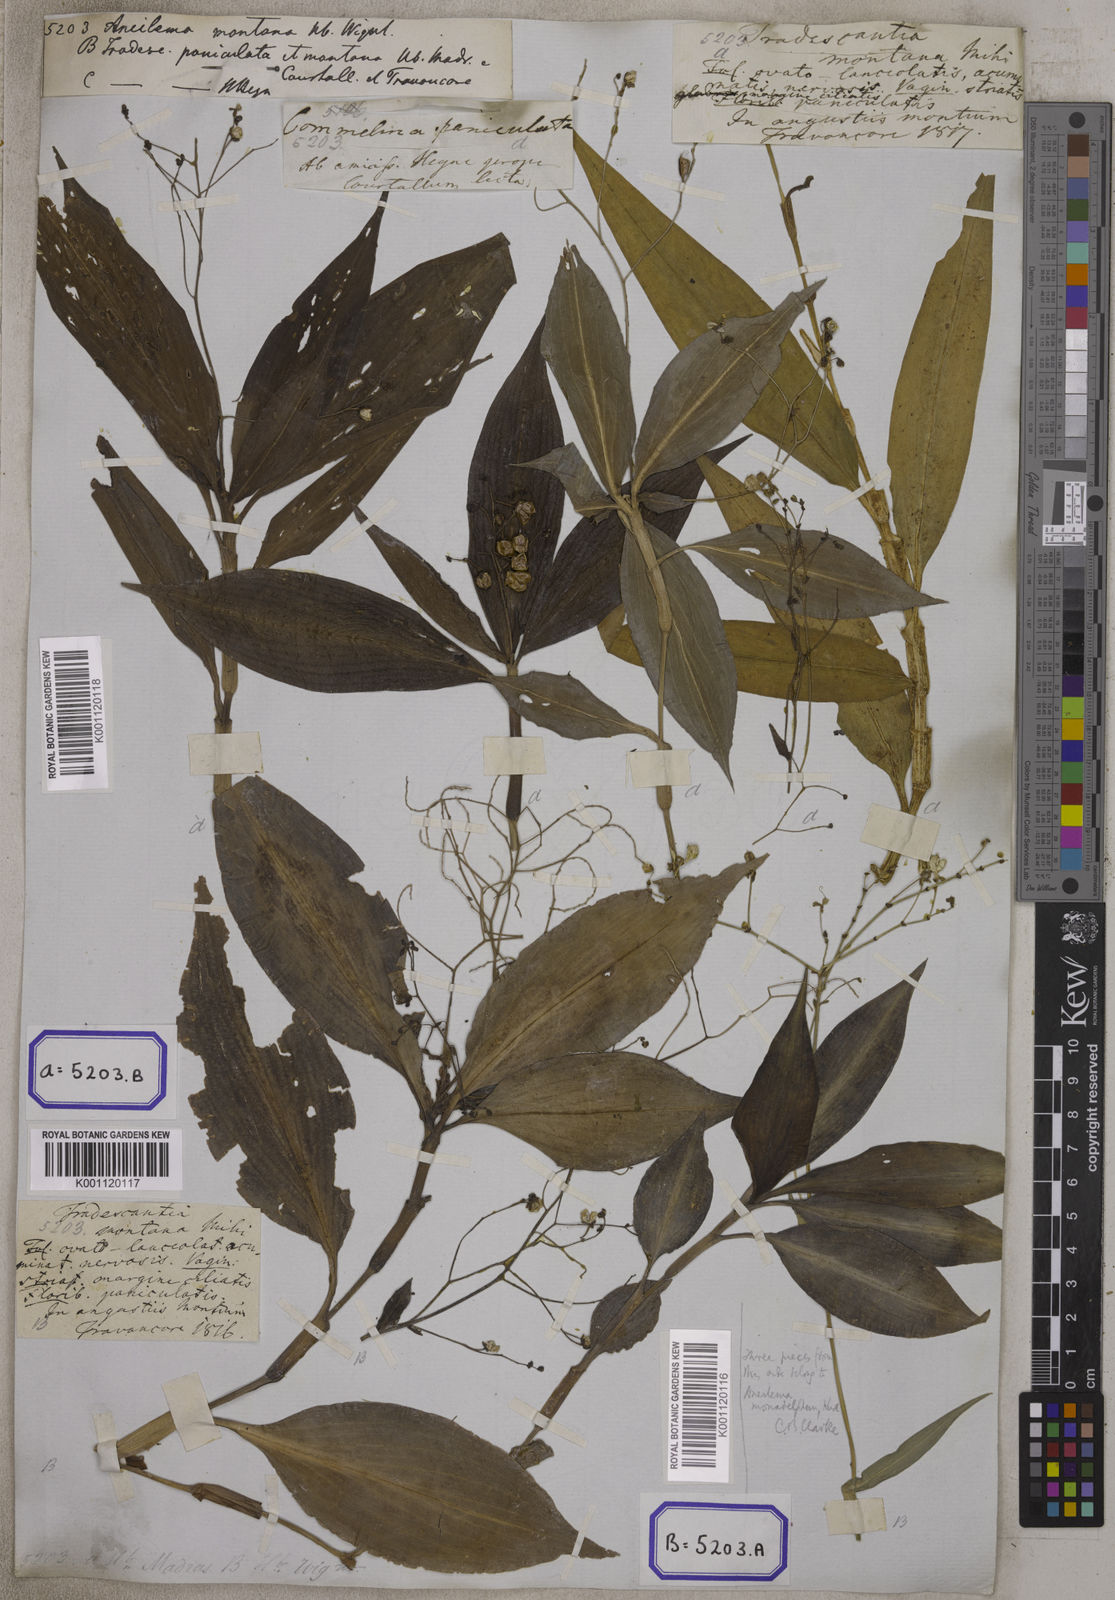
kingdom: Plantae
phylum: Tracheophyta
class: Liliopsida
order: Commelinales
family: Commelinaceae
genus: Dictyospermum
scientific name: Dictyospermum montanum
